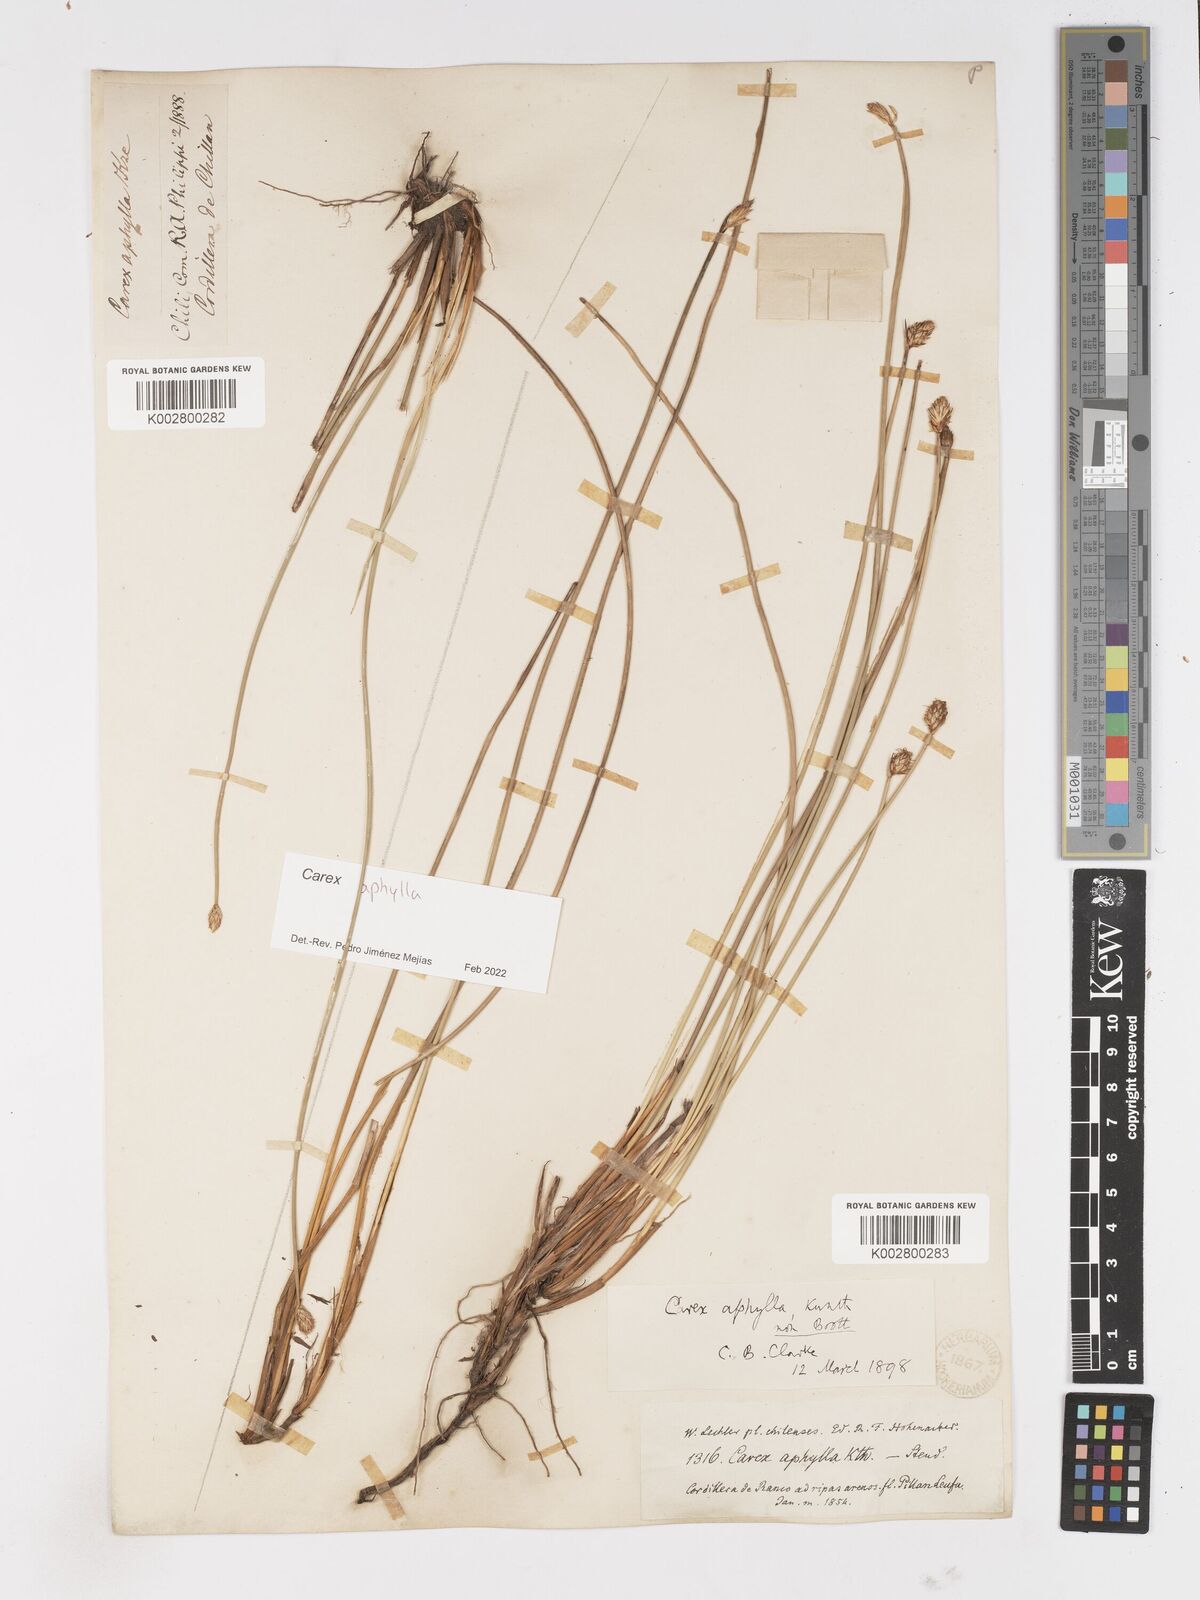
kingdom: Plantae
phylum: Tracheophyta
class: Liliopsida
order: Poales
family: Cyperaceae
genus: Carex
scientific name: Carex aphylla
